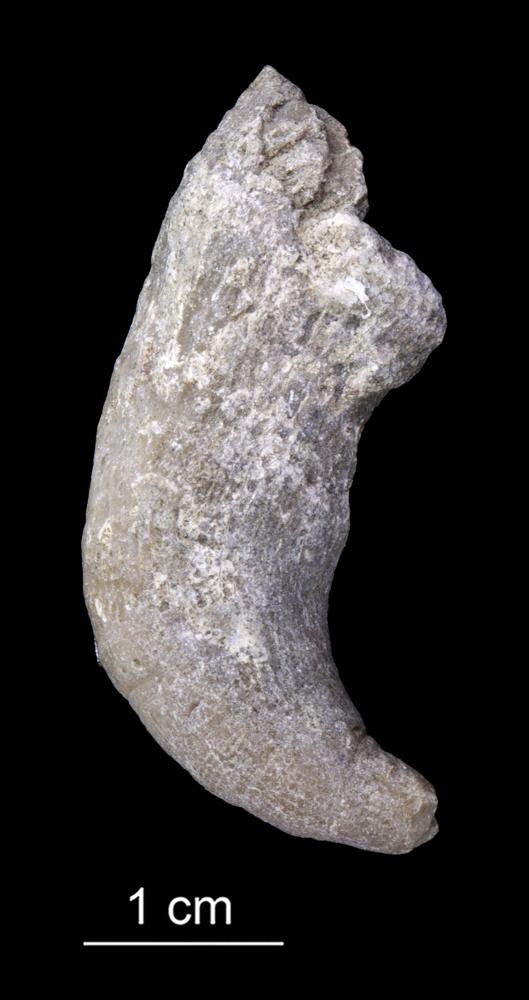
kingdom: Animalia
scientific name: Animalia
